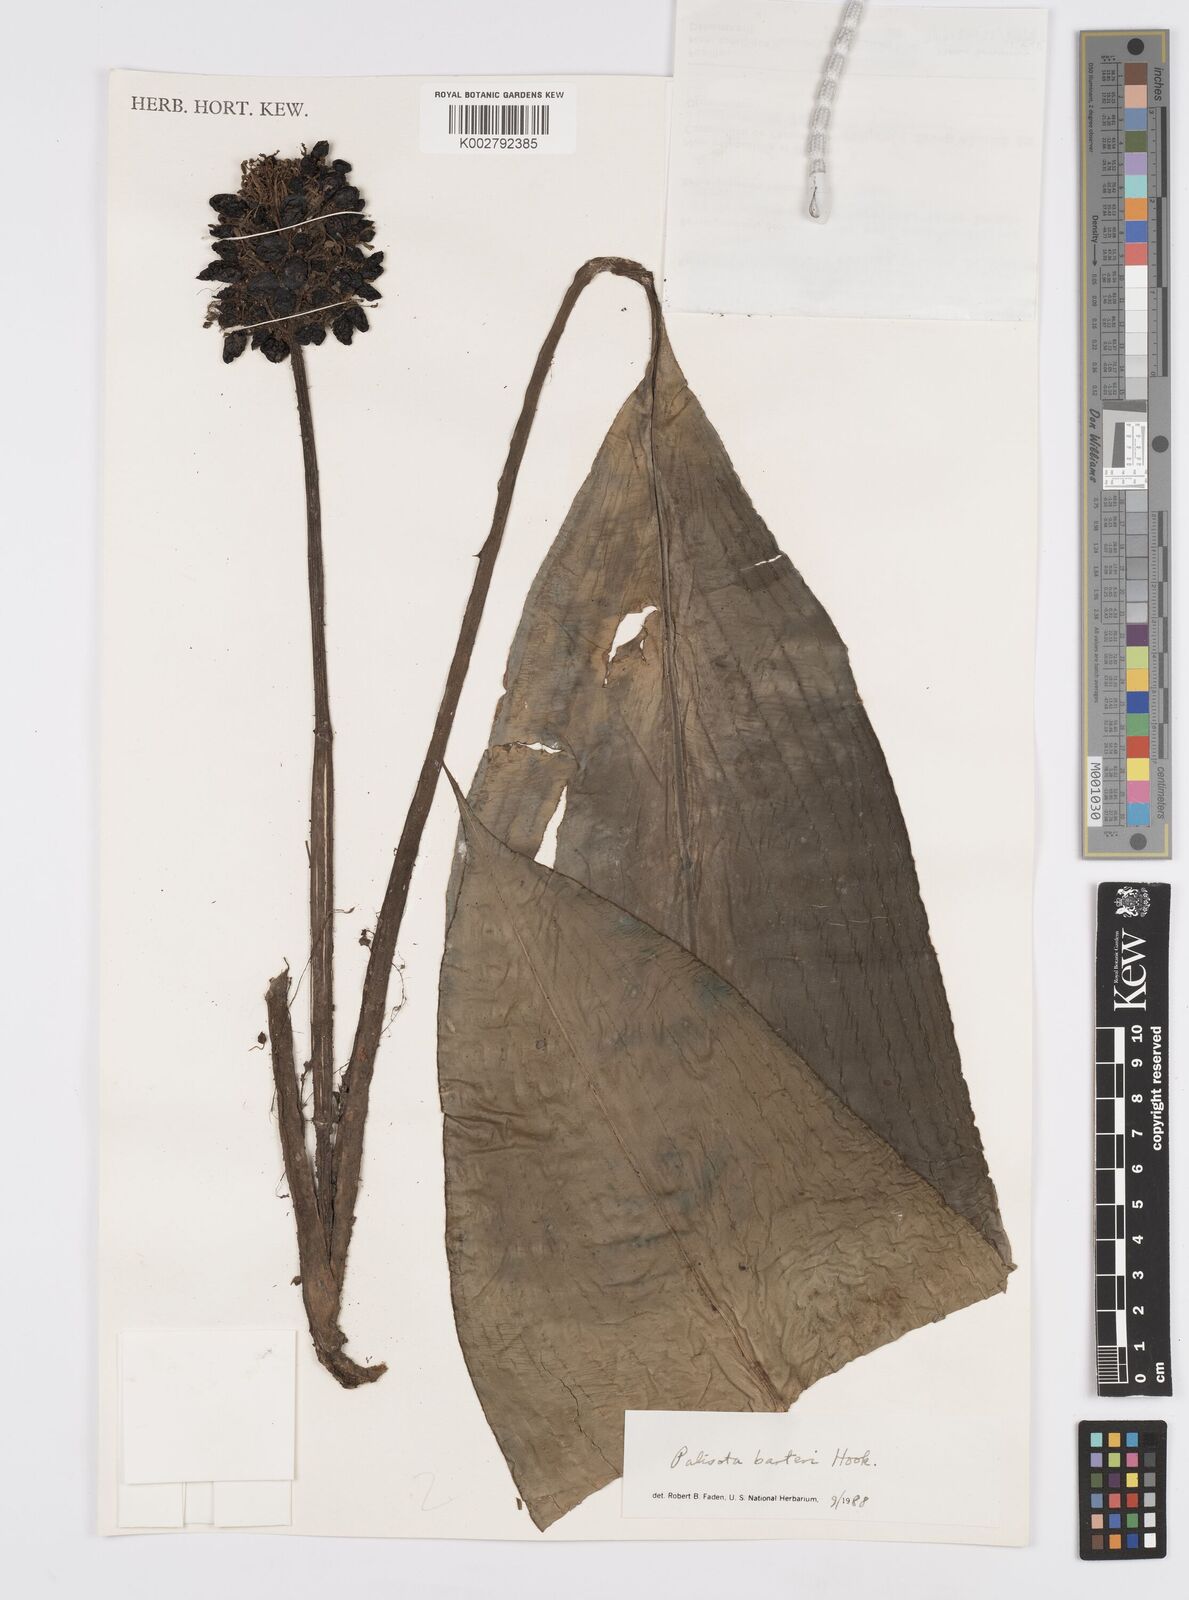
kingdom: Plantae
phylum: Tracheophyta
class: Liliopsida
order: Commelinales
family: Commelinaceae
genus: Palisota
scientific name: Palisota barteri
